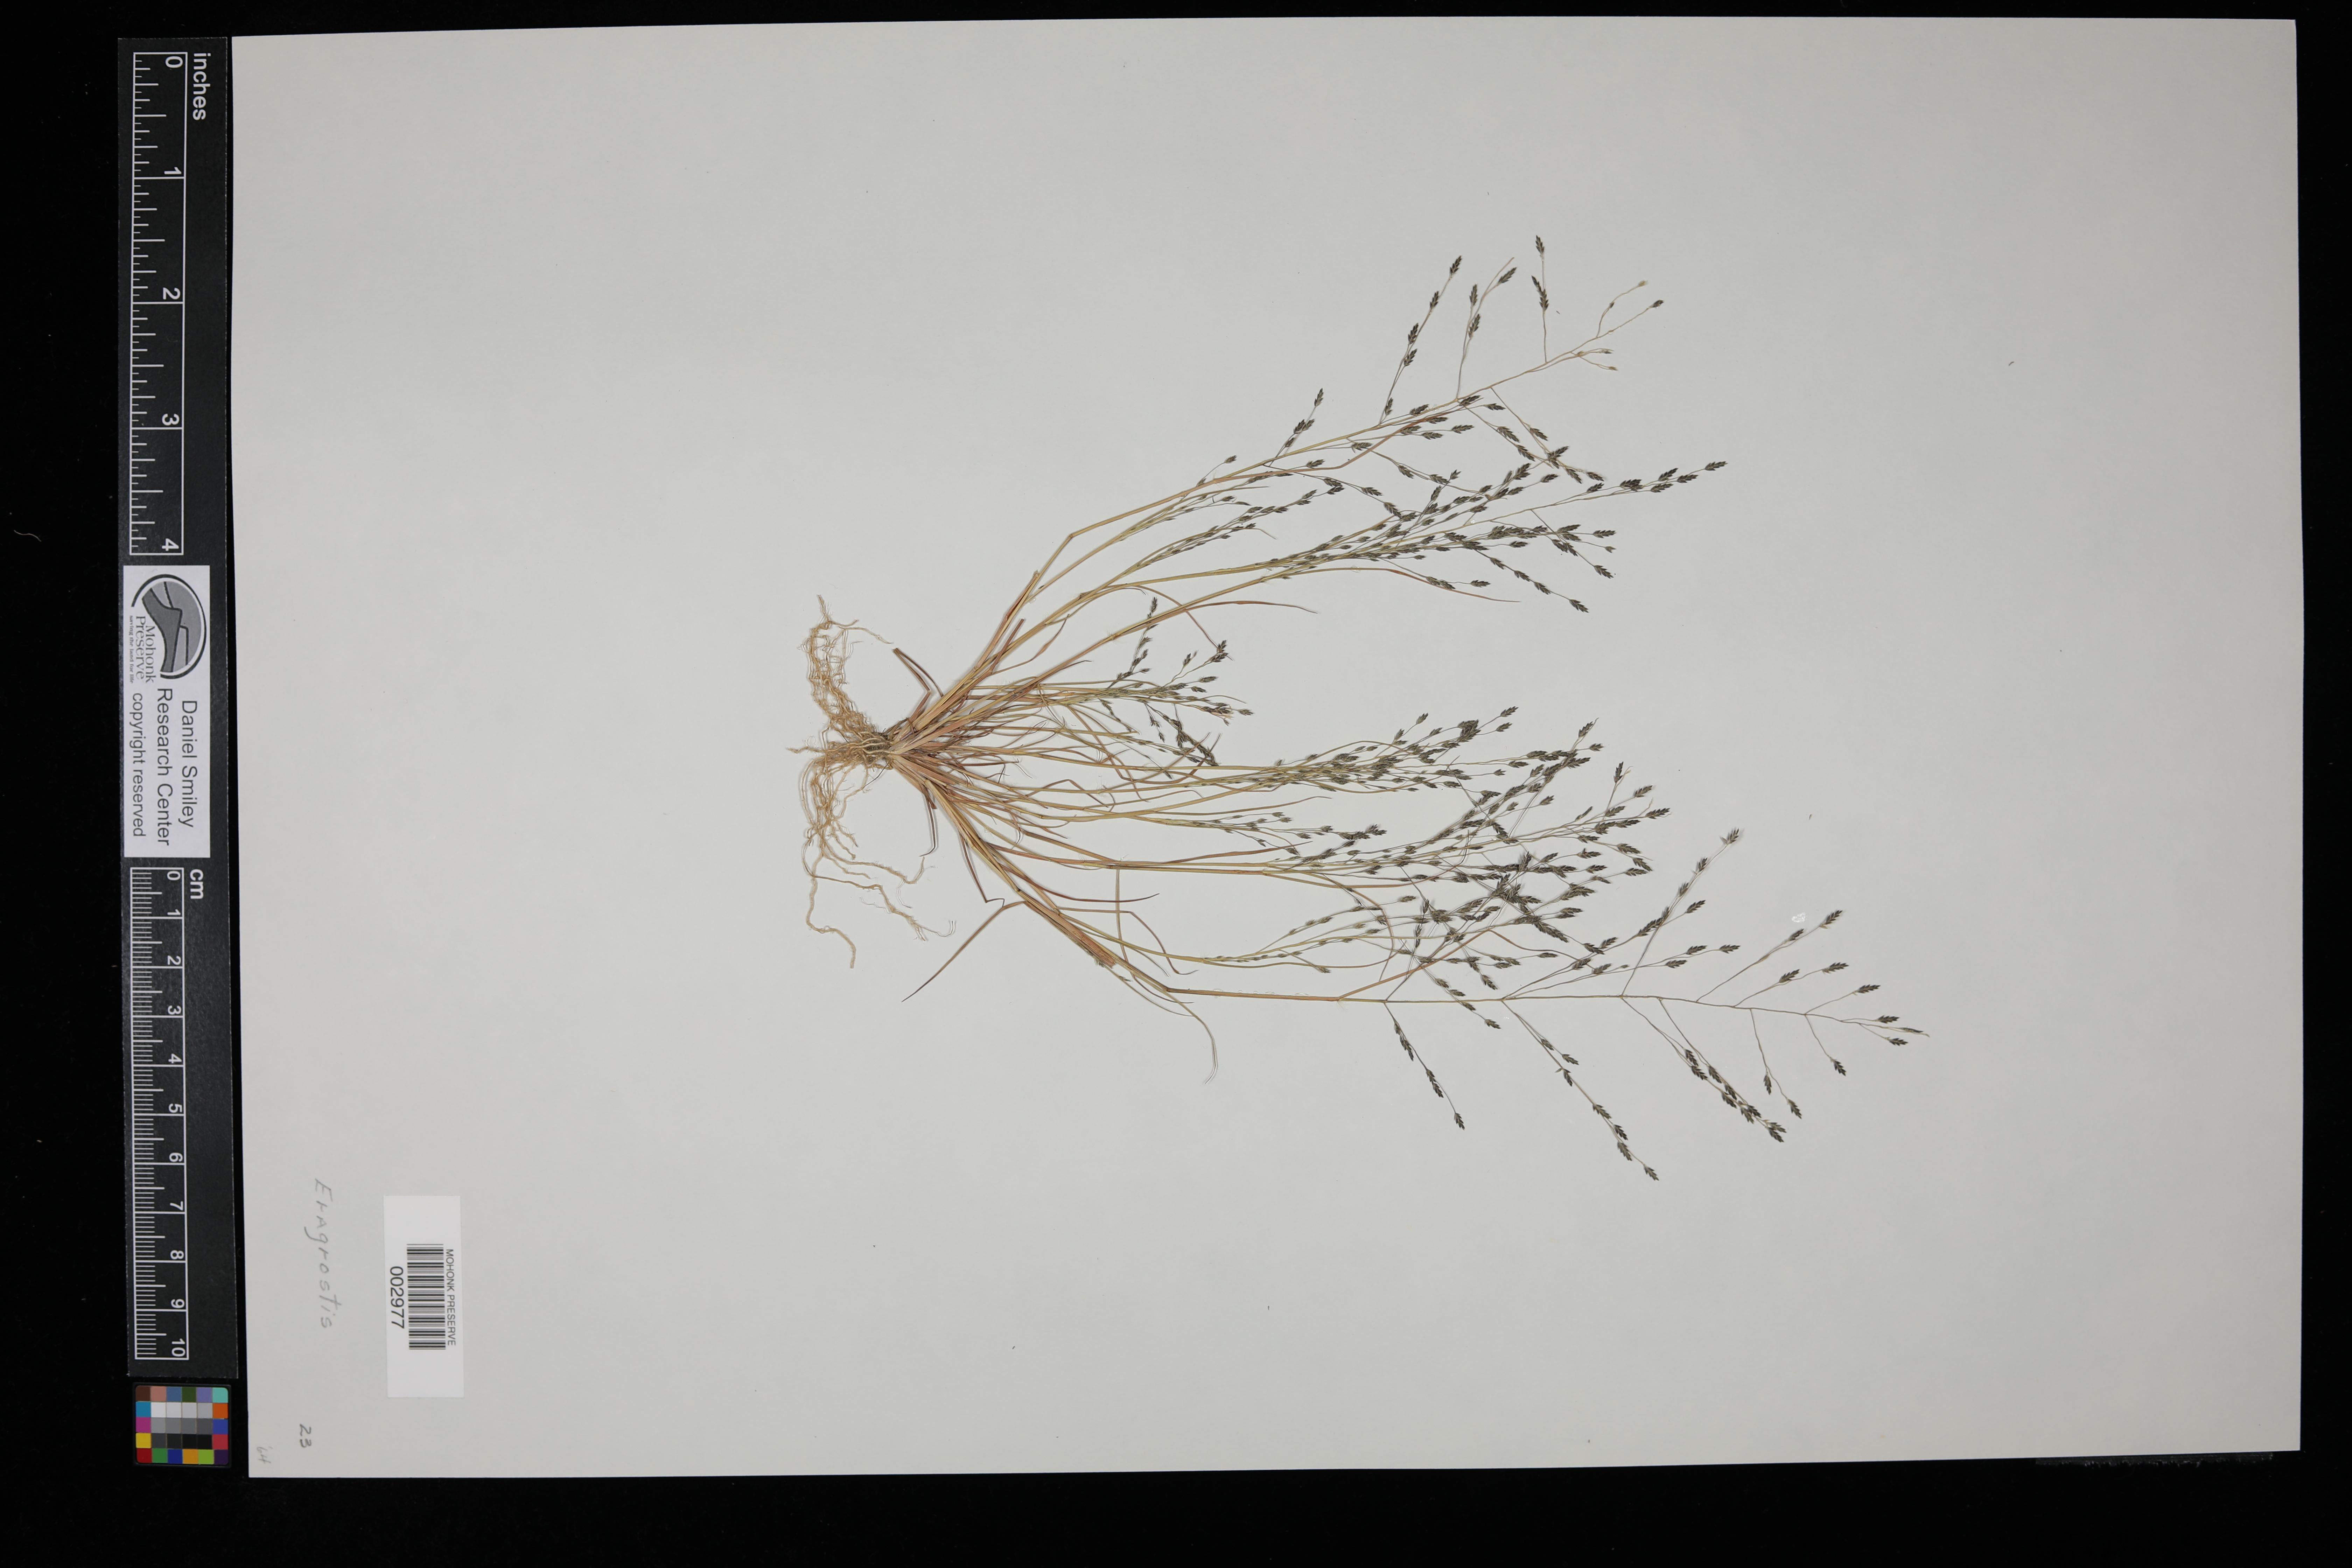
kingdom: Plantae
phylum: Tracheophyta
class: Liliopsida
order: Poales
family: Poaceae
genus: Eragrostis
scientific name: Eragrostis
